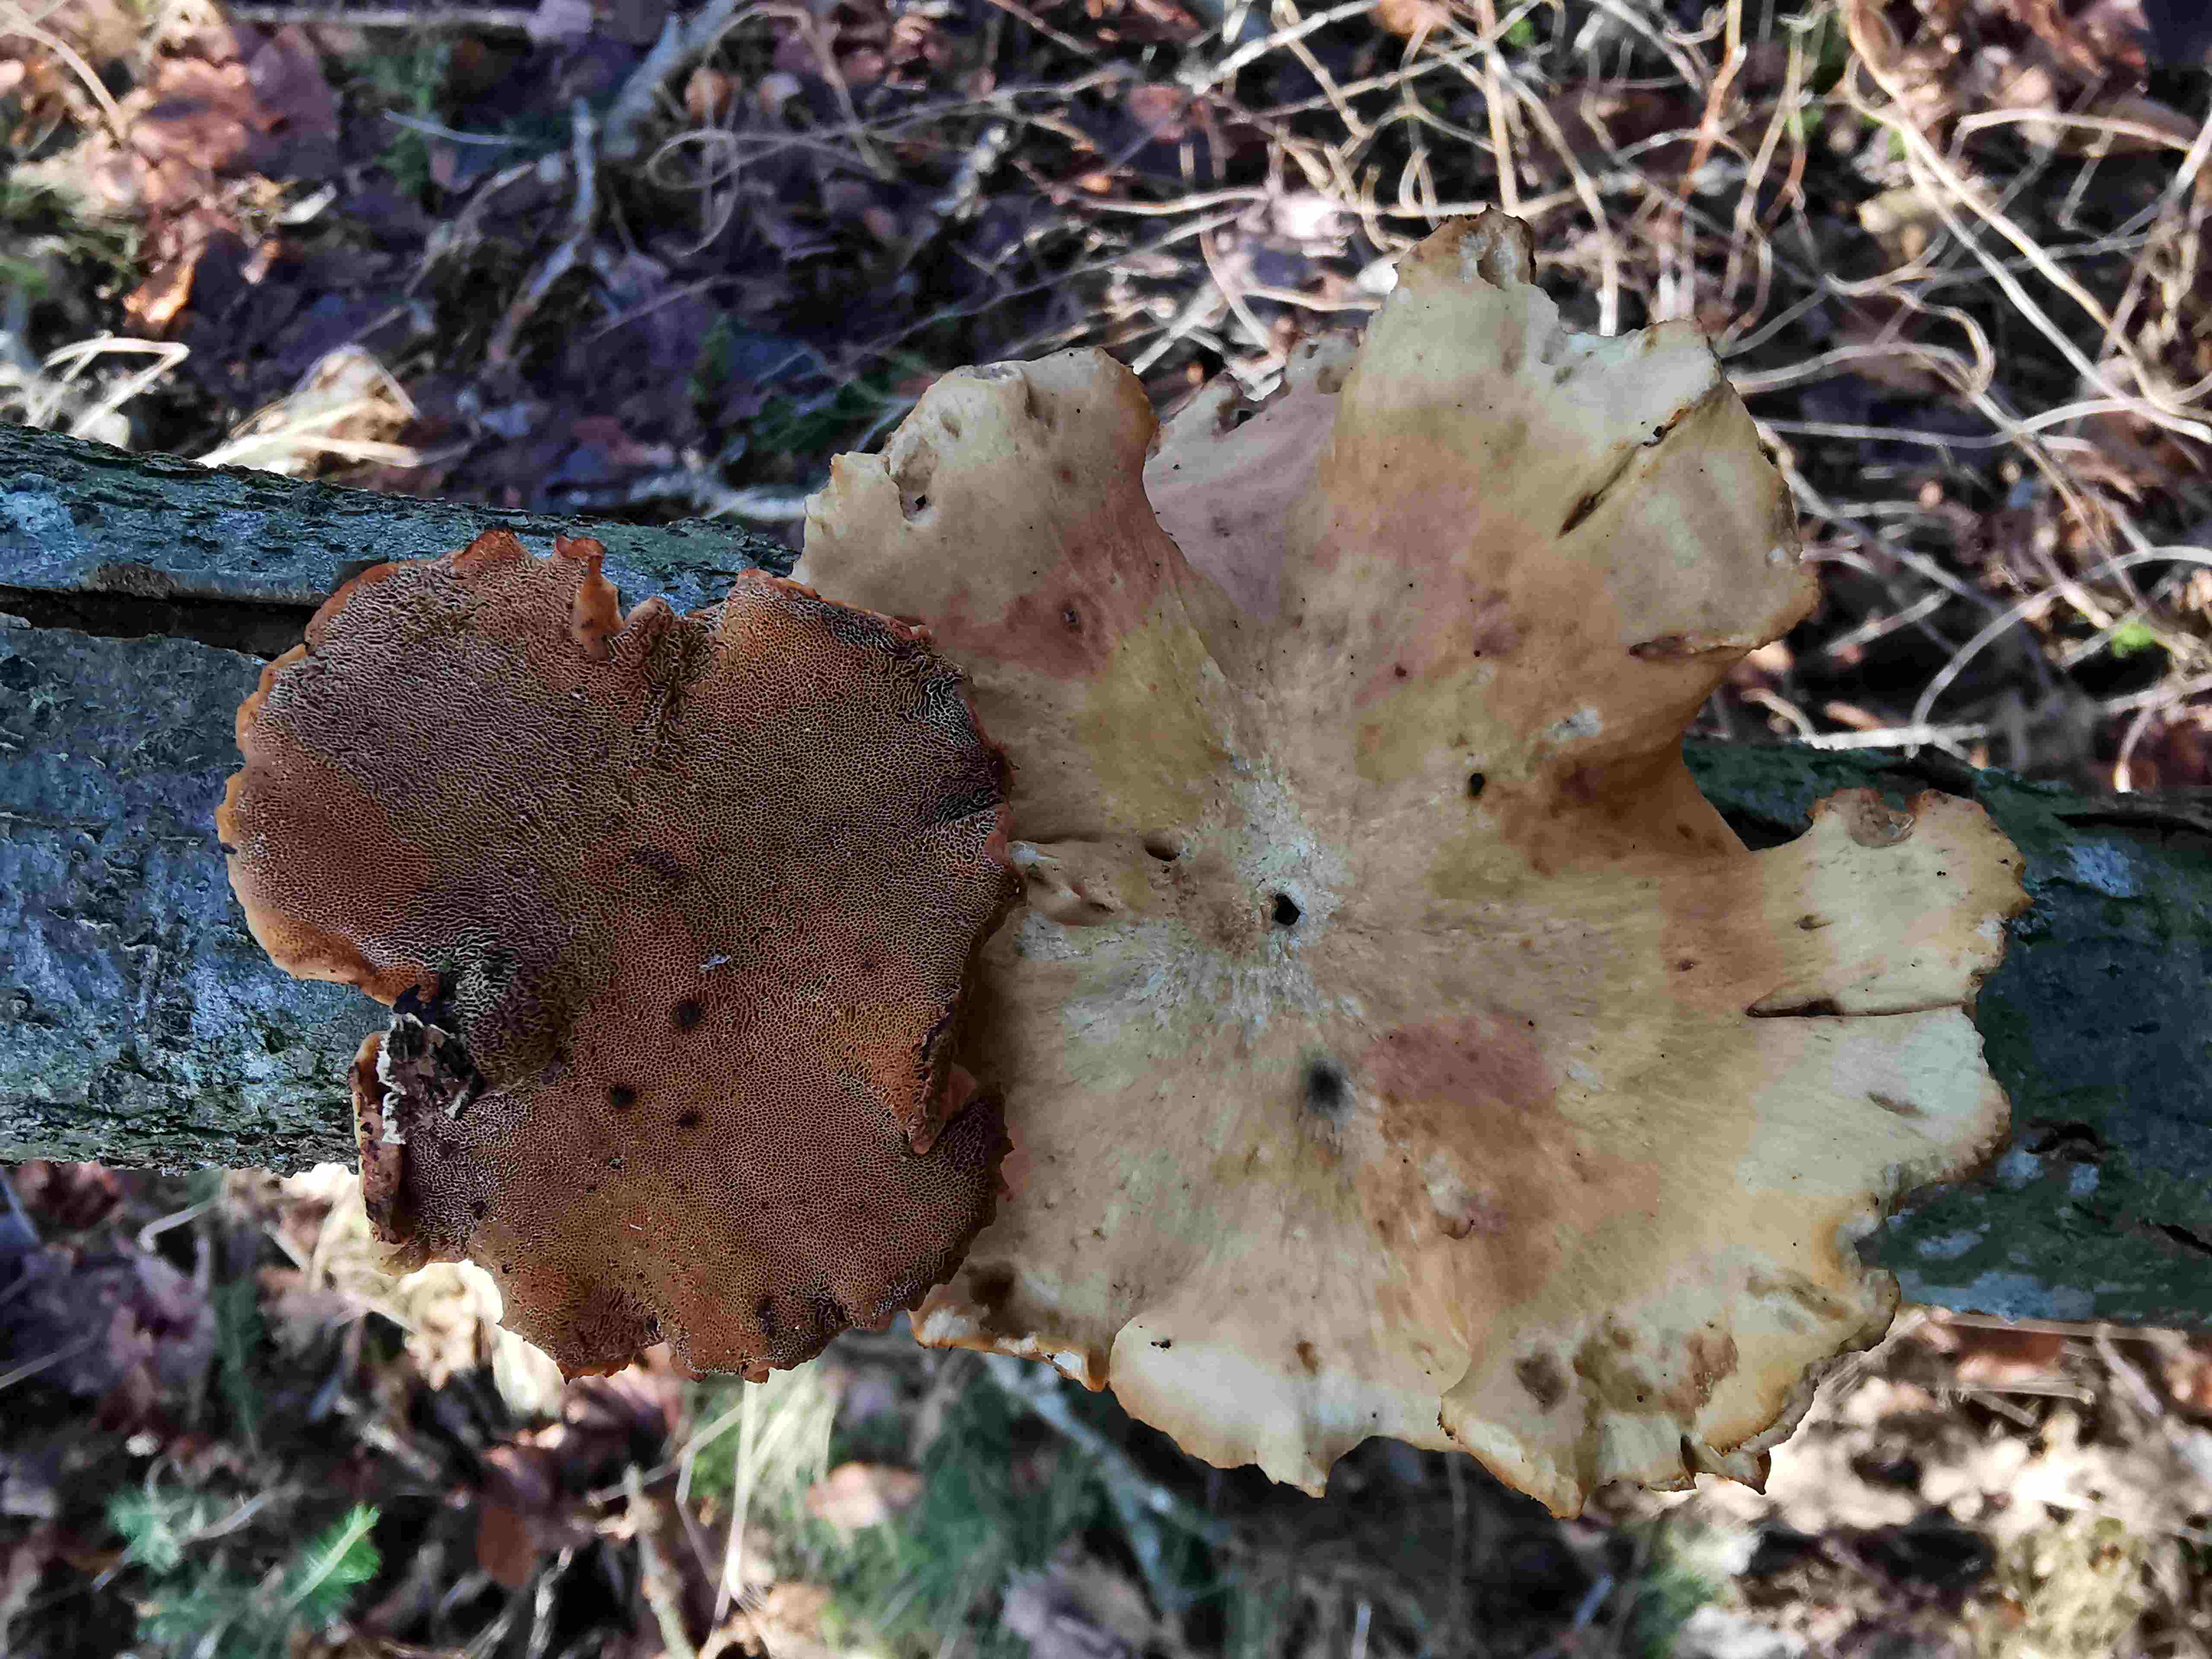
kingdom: Fungi
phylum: Basidiomycota
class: Agaricomycetes
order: Polyporales
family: Polyporaceae
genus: Lentinus
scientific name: Lentinus brumalis
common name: vinter-stilkporesvamp
